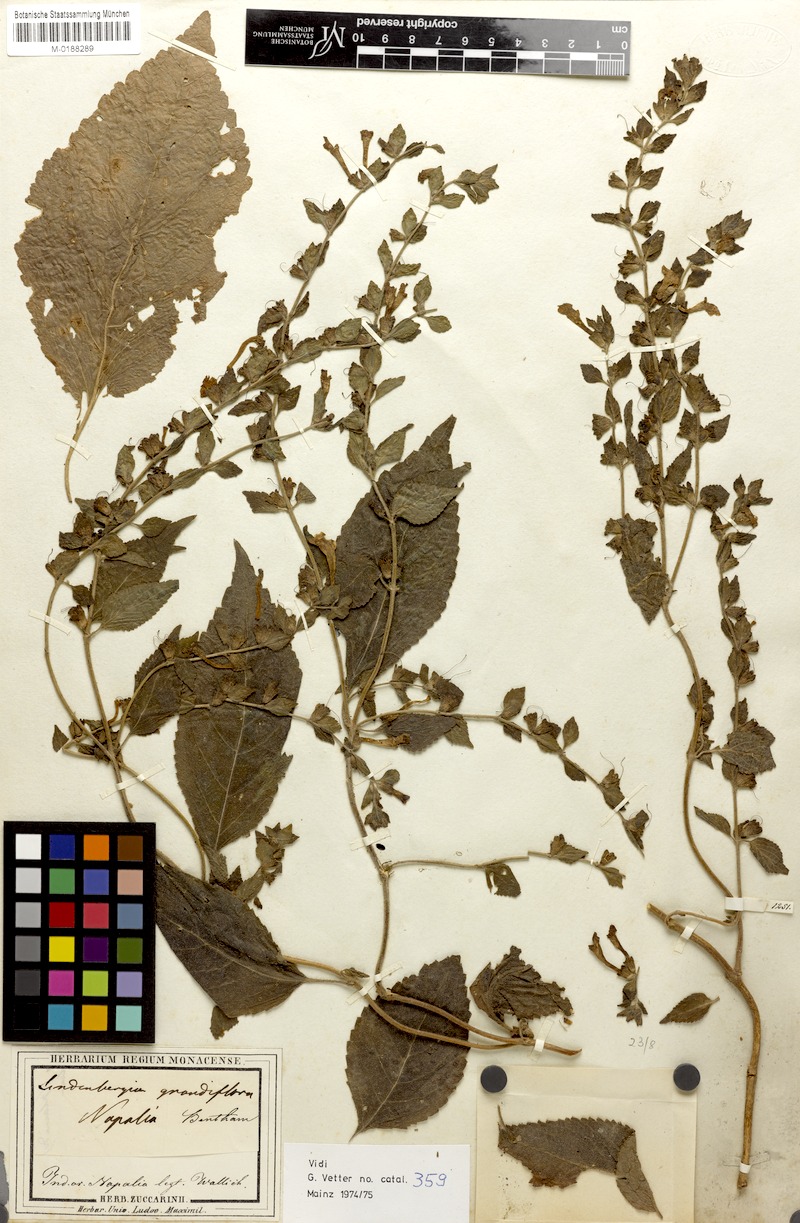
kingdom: Plantae
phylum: Tracheophyta
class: Magnoliopsida
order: Lamiales
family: Orobanchaceae
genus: Lindenbergia
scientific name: Lindenbergia grandiflora
